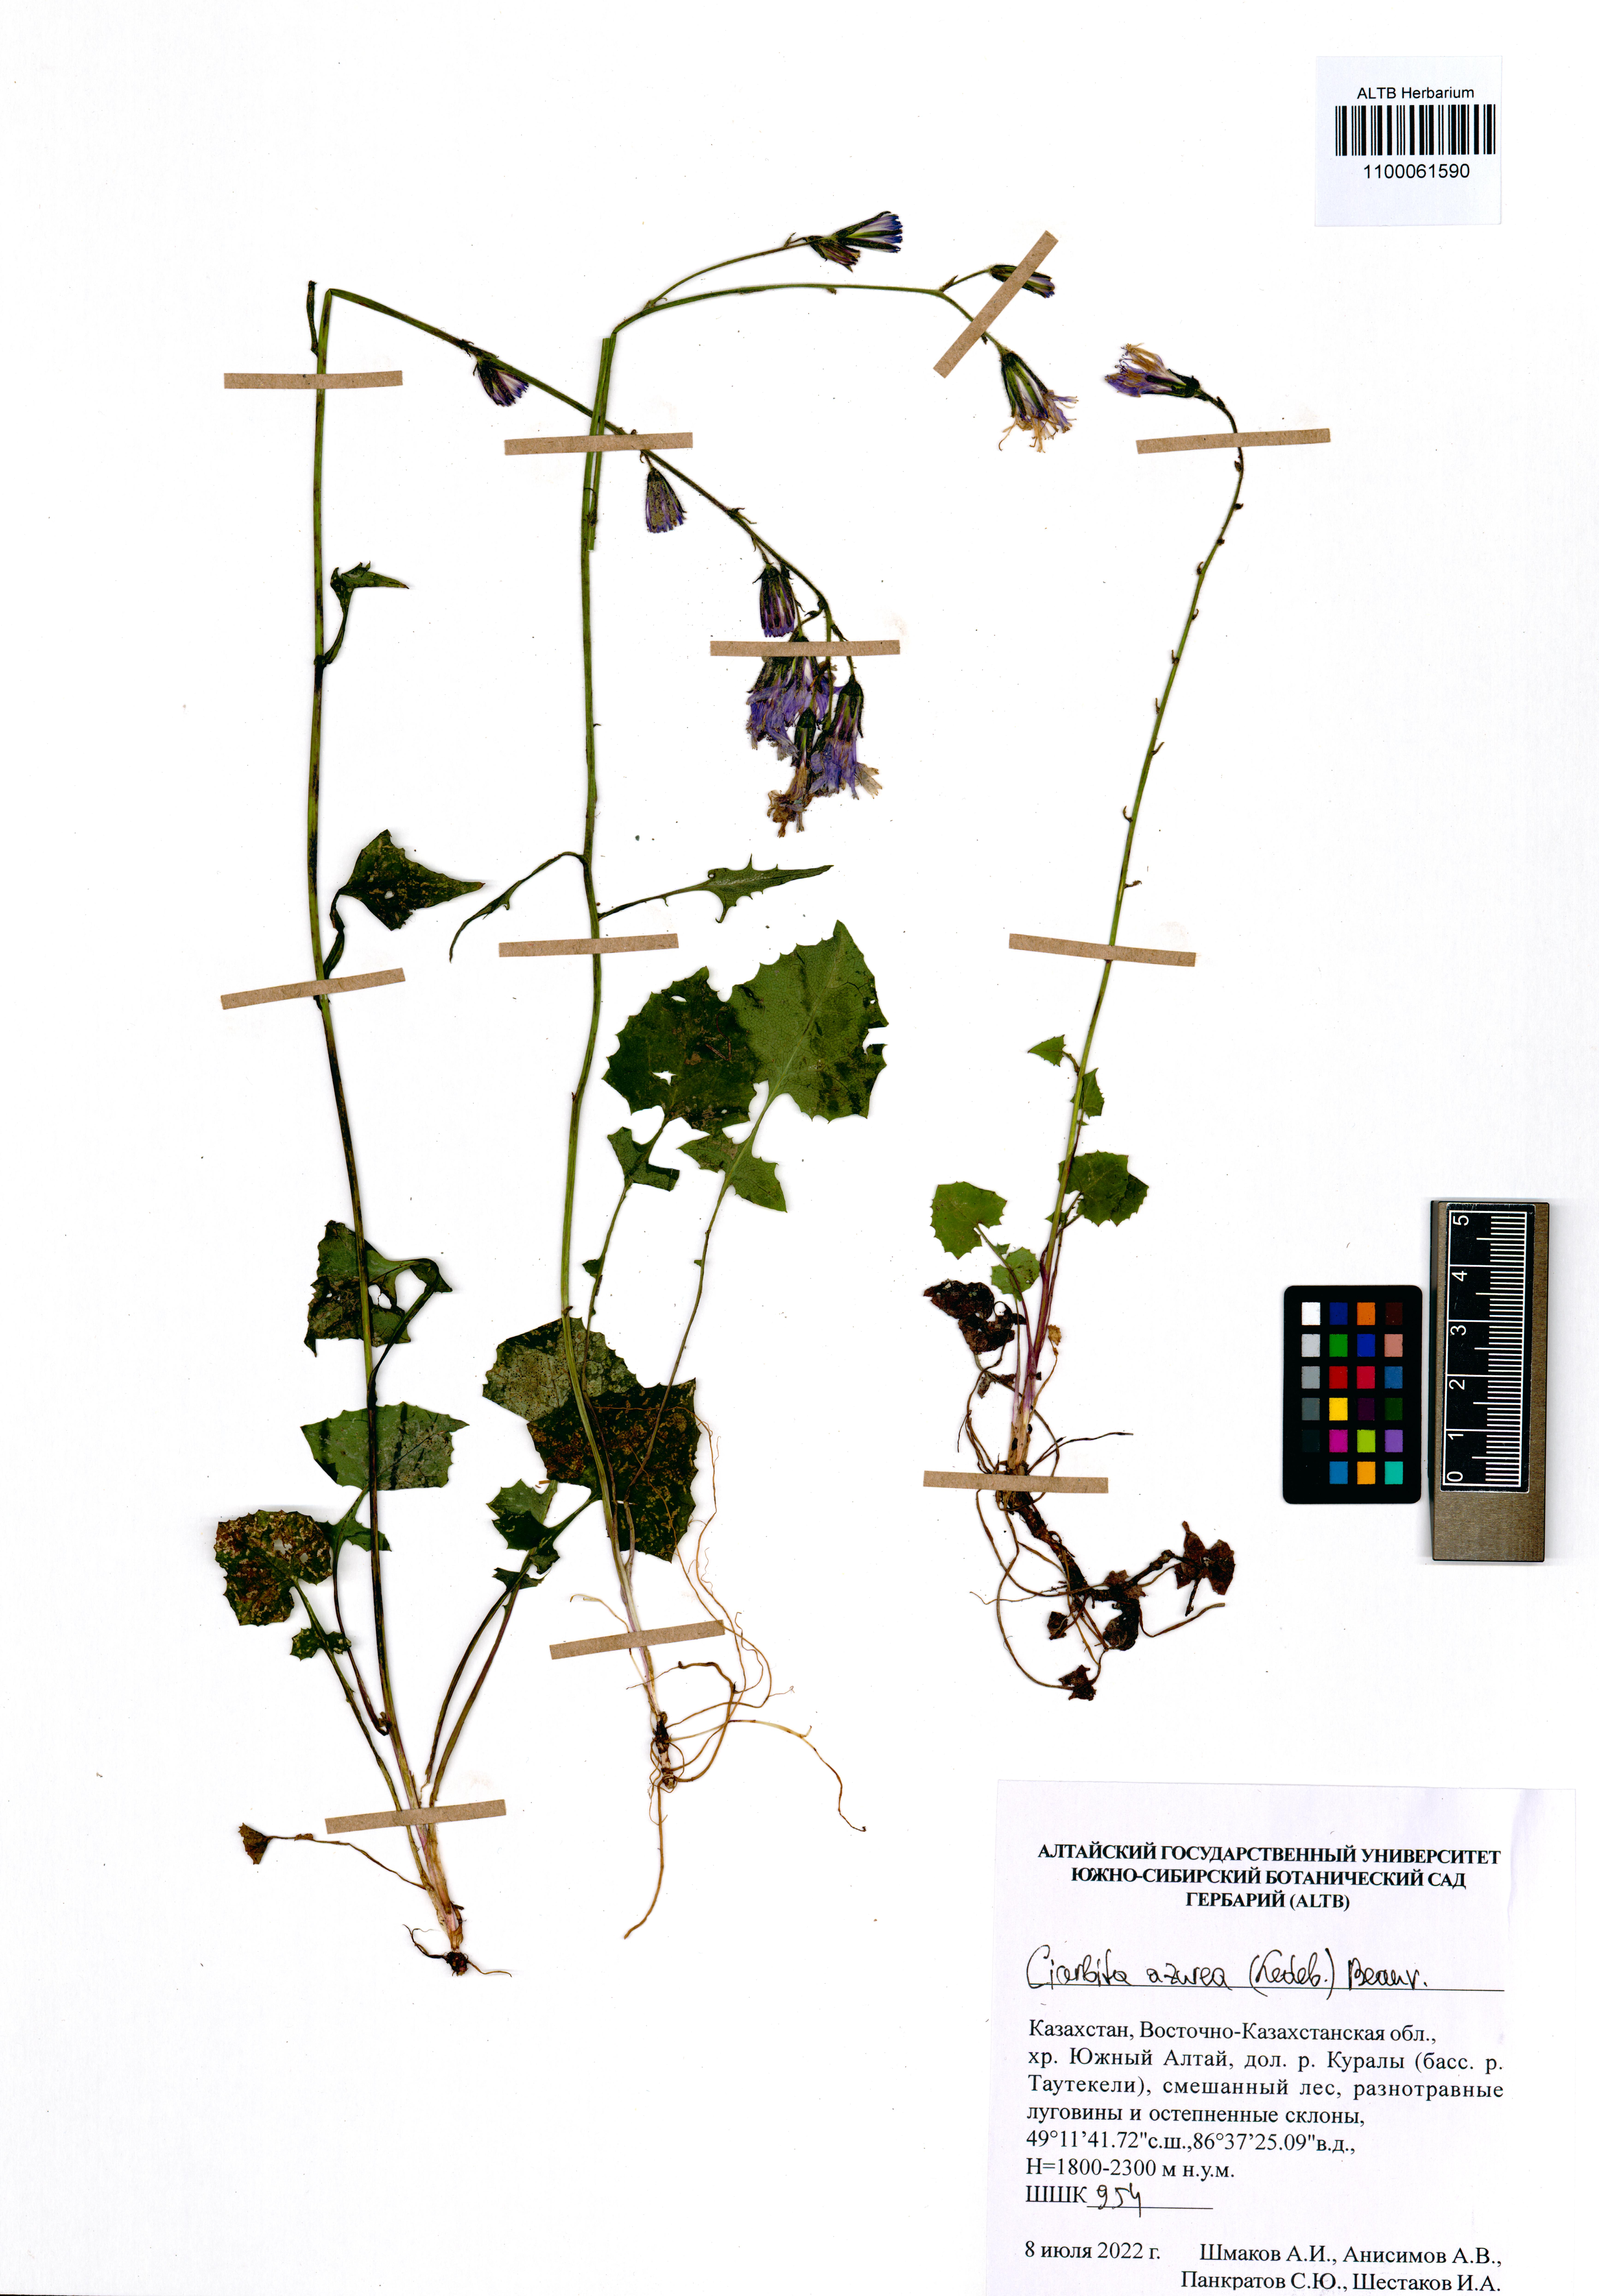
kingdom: Plantae
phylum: Tracheophyta
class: Magnoliopsida
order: Asterales
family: Asteraceae
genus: Cicerbita
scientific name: Cicerbita azurea
